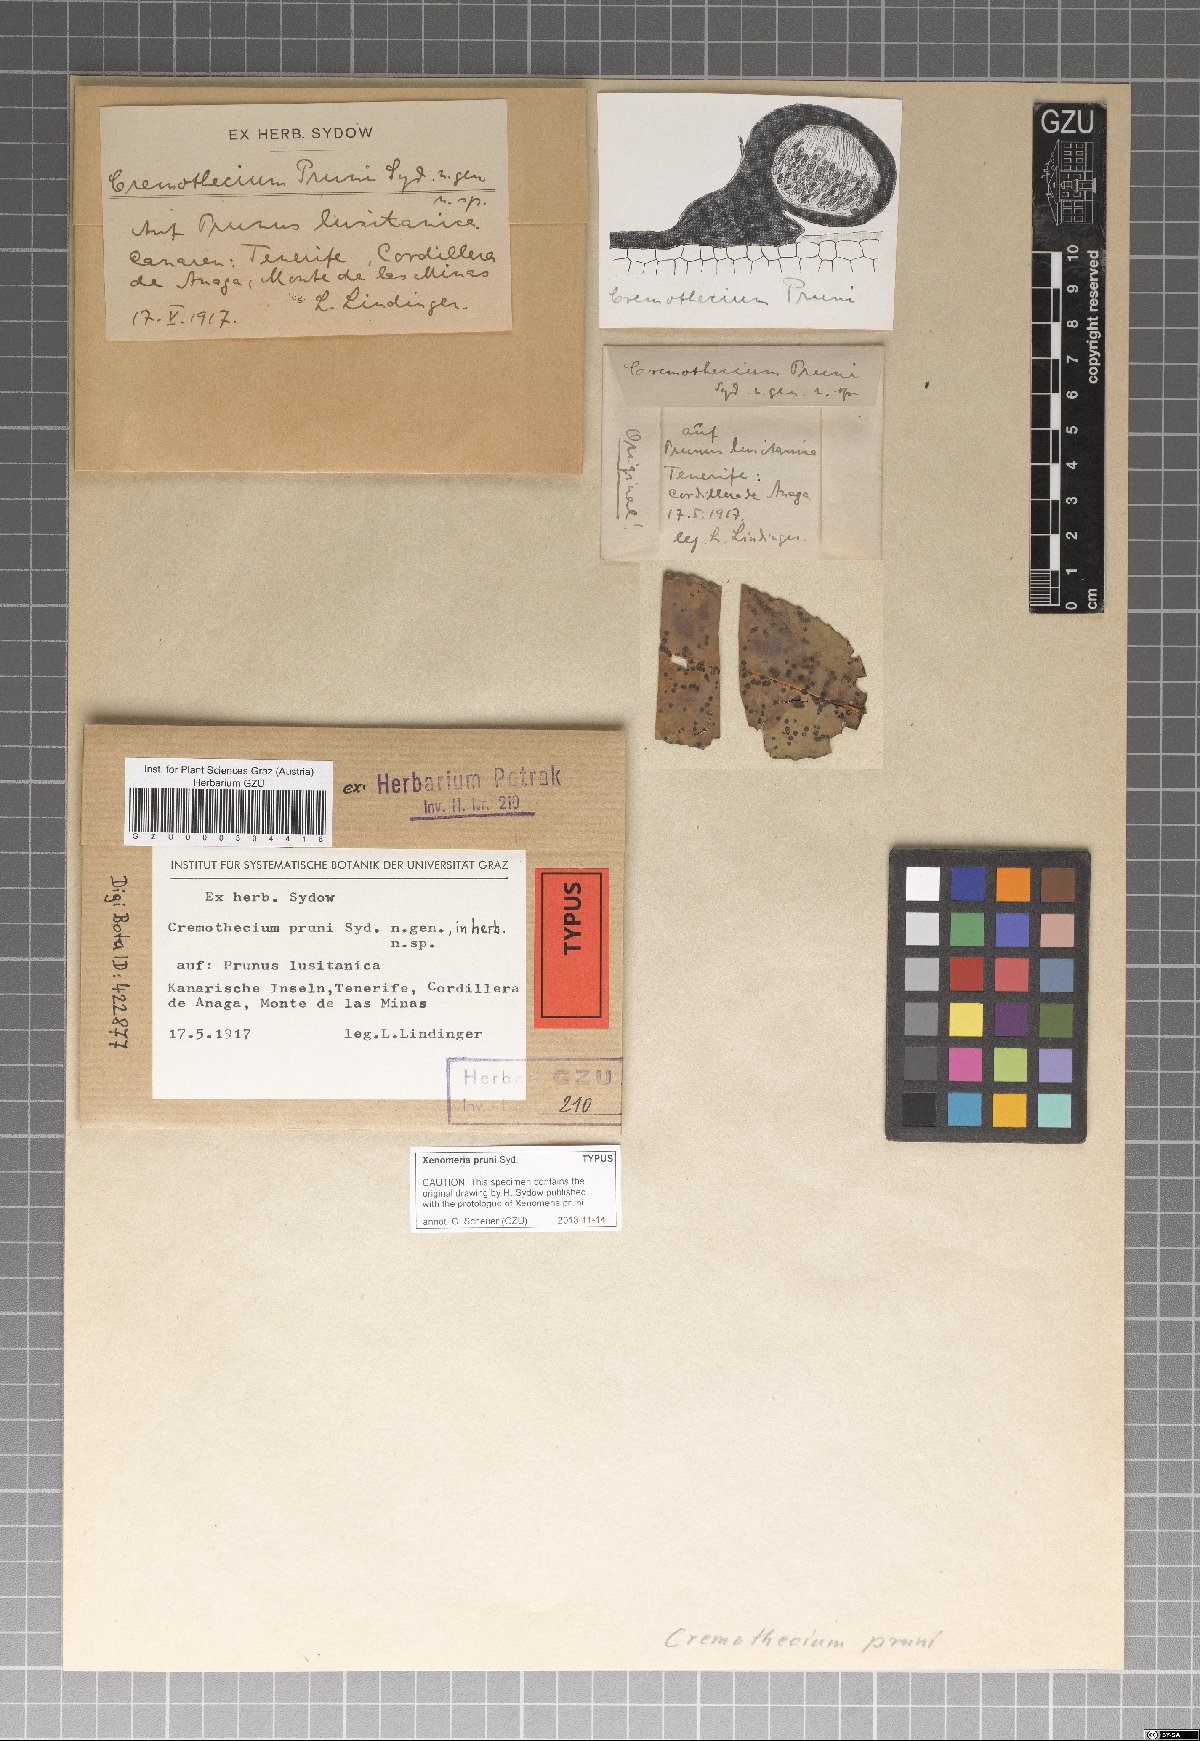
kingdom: Fungi
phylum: Ascomycota
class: Dothideomycetes
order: Venturiales
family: Venturiaceae
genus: Xenomeris
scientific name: Xenomeris pruni
